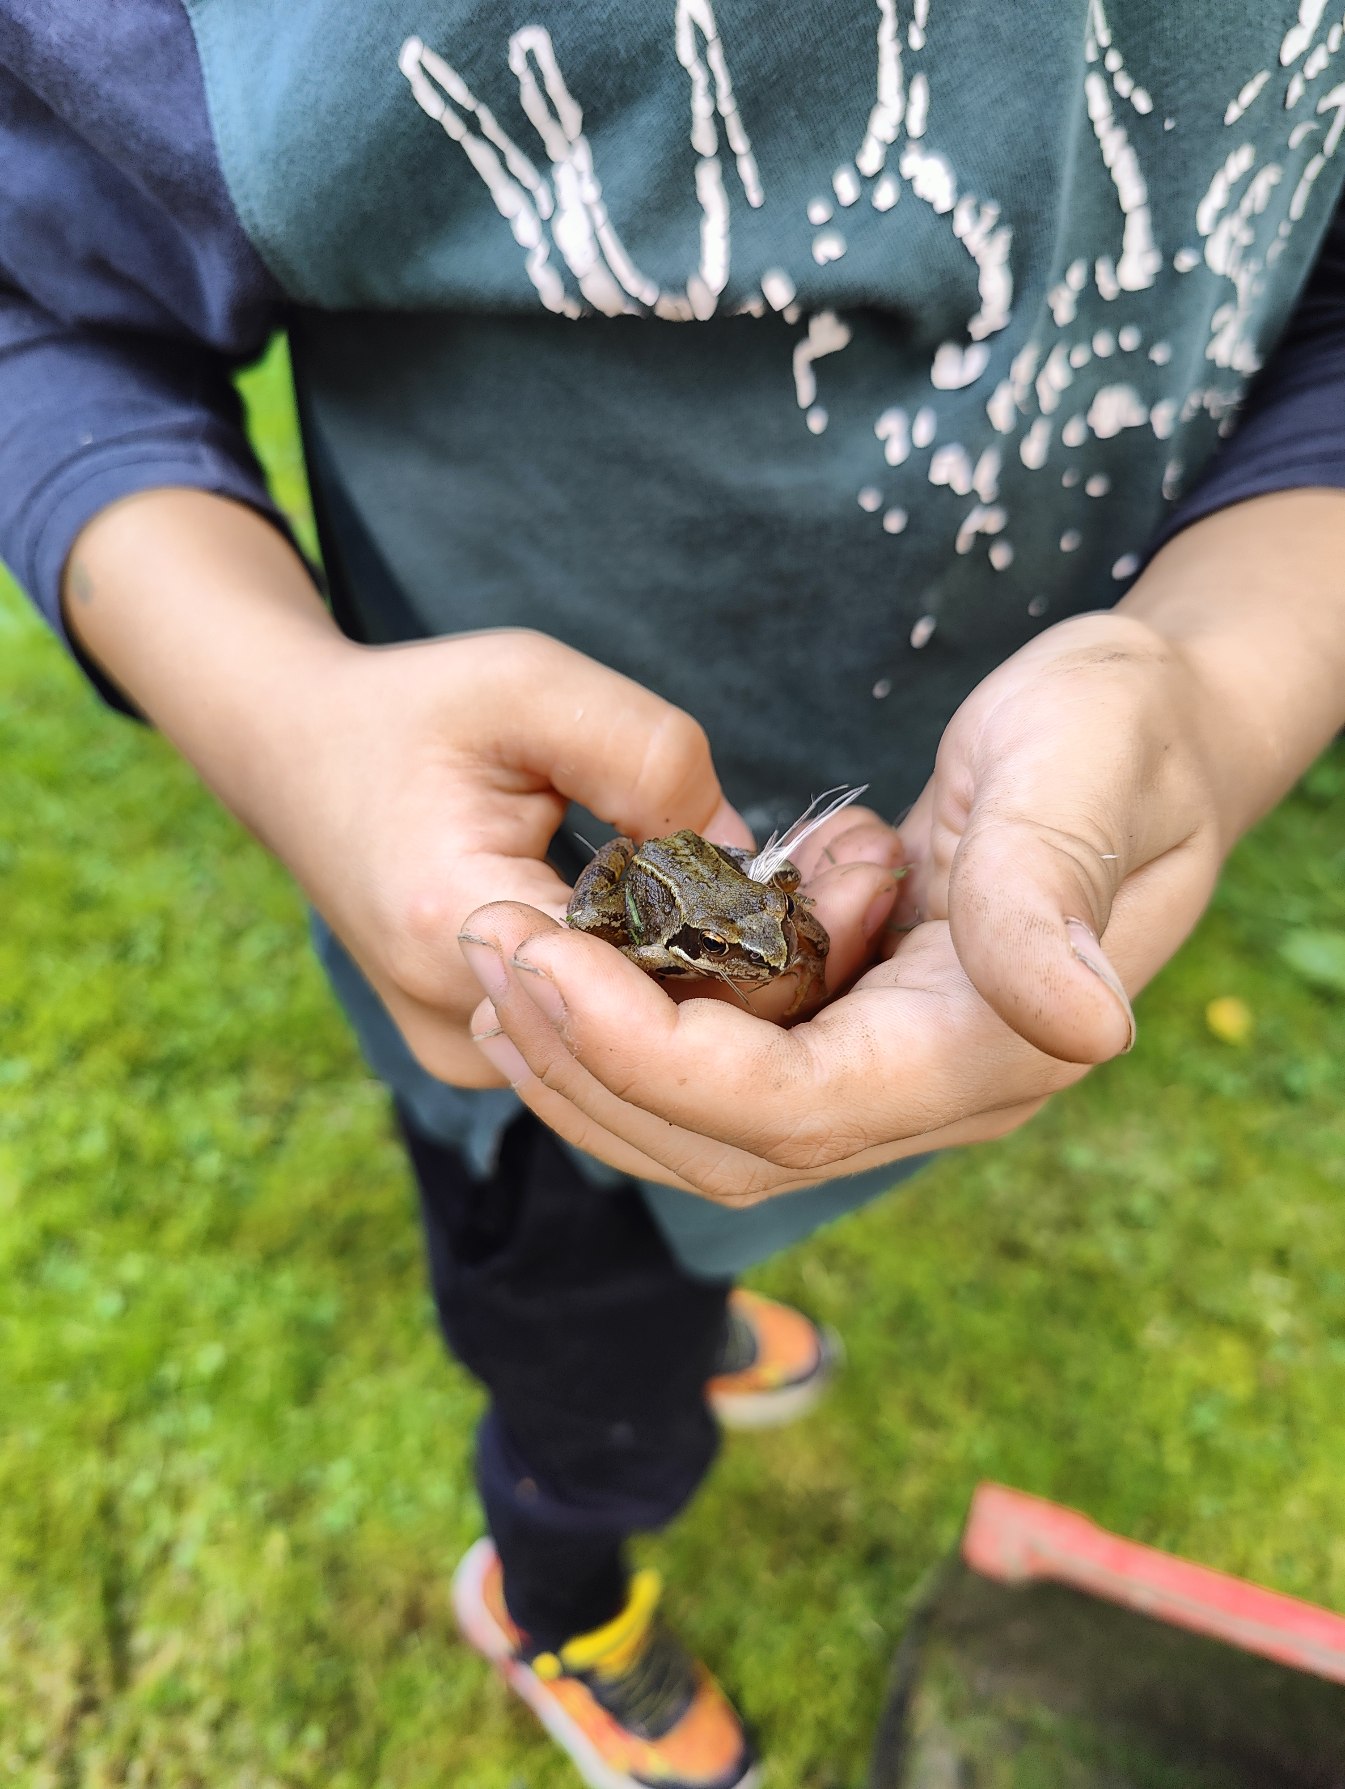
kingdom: Animalia
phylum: Chordata
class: Amphibia
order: Anura
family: Ranidae
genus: Rana
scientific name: Rana temporaria
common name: Butsnudet frø
